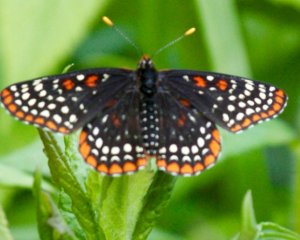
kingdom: Animalia
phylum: Arthropoda
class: Insecta
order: Lepidoptera
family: Nymphalidae
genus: Euphydryas
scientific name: Euphydryas phaeton
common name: Baltimore Checkerspot
